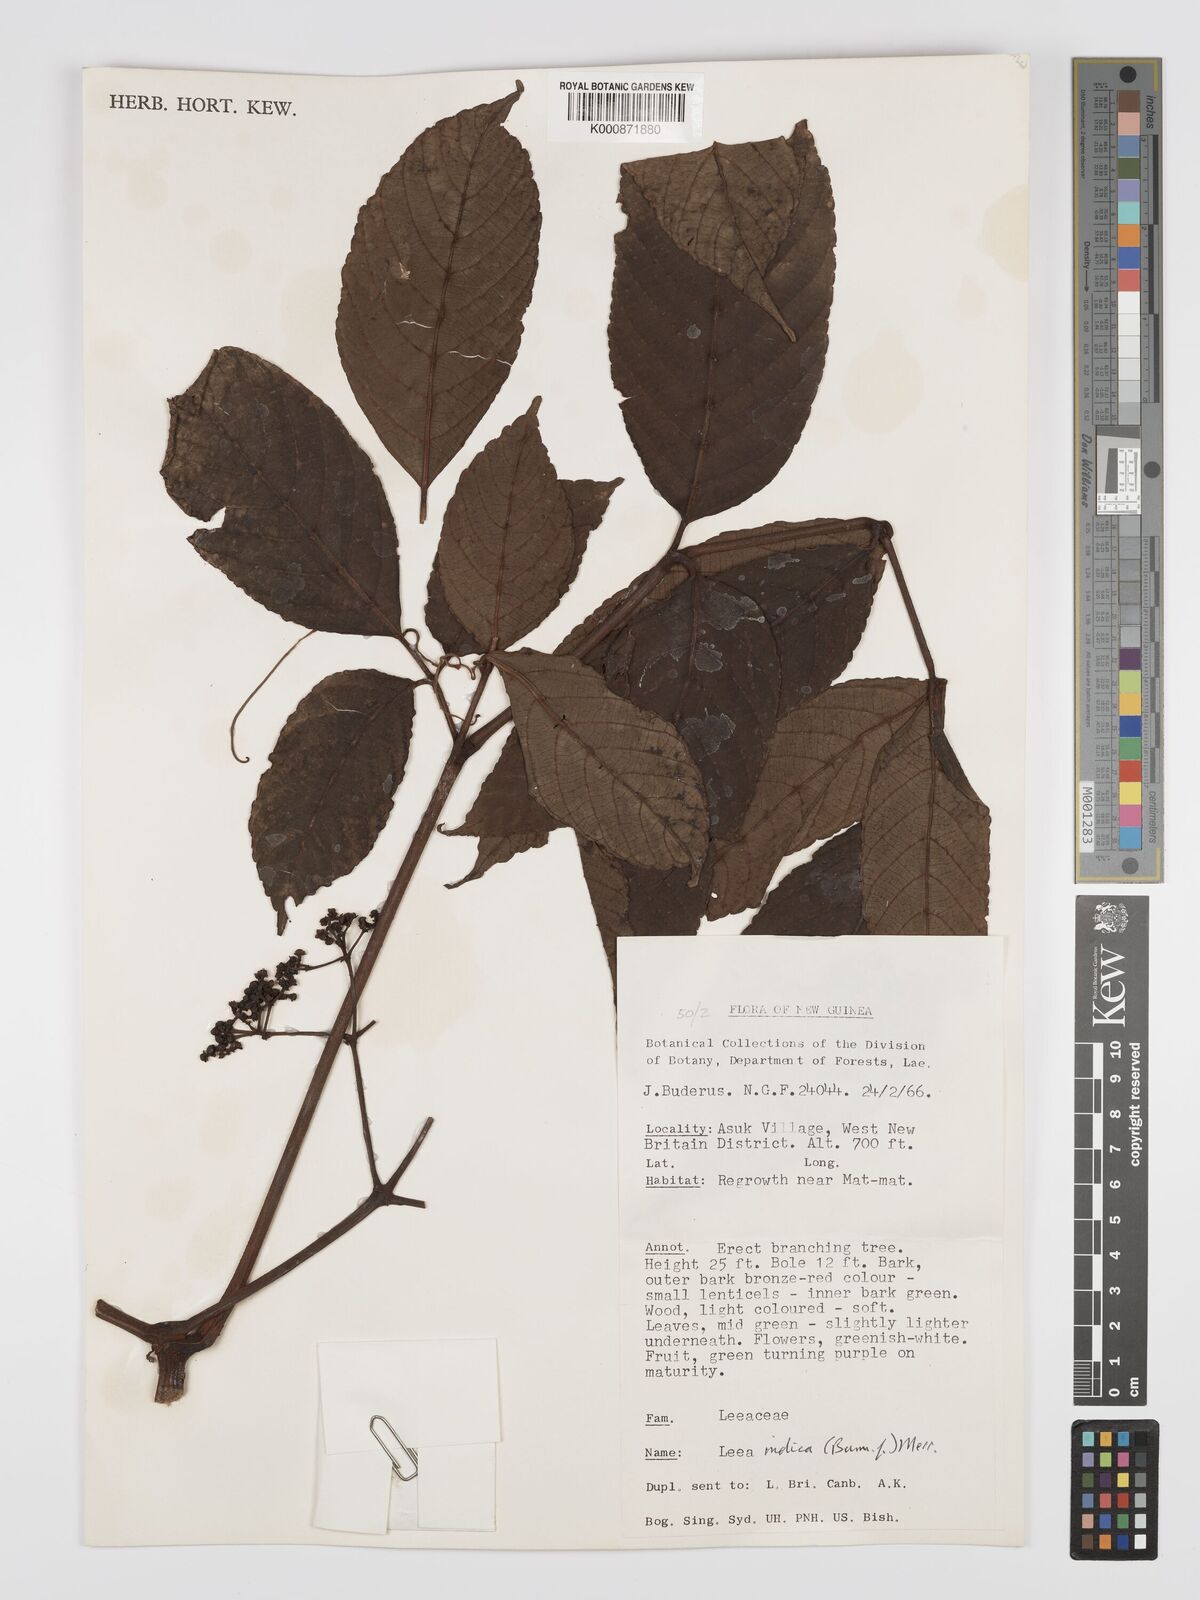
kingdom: Plantae
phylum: Tracheophyta
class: Magnoliopsida
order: Vitales
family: Vitaceae
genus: Leea
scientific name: Leea indica
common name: Bandicoot-berry
